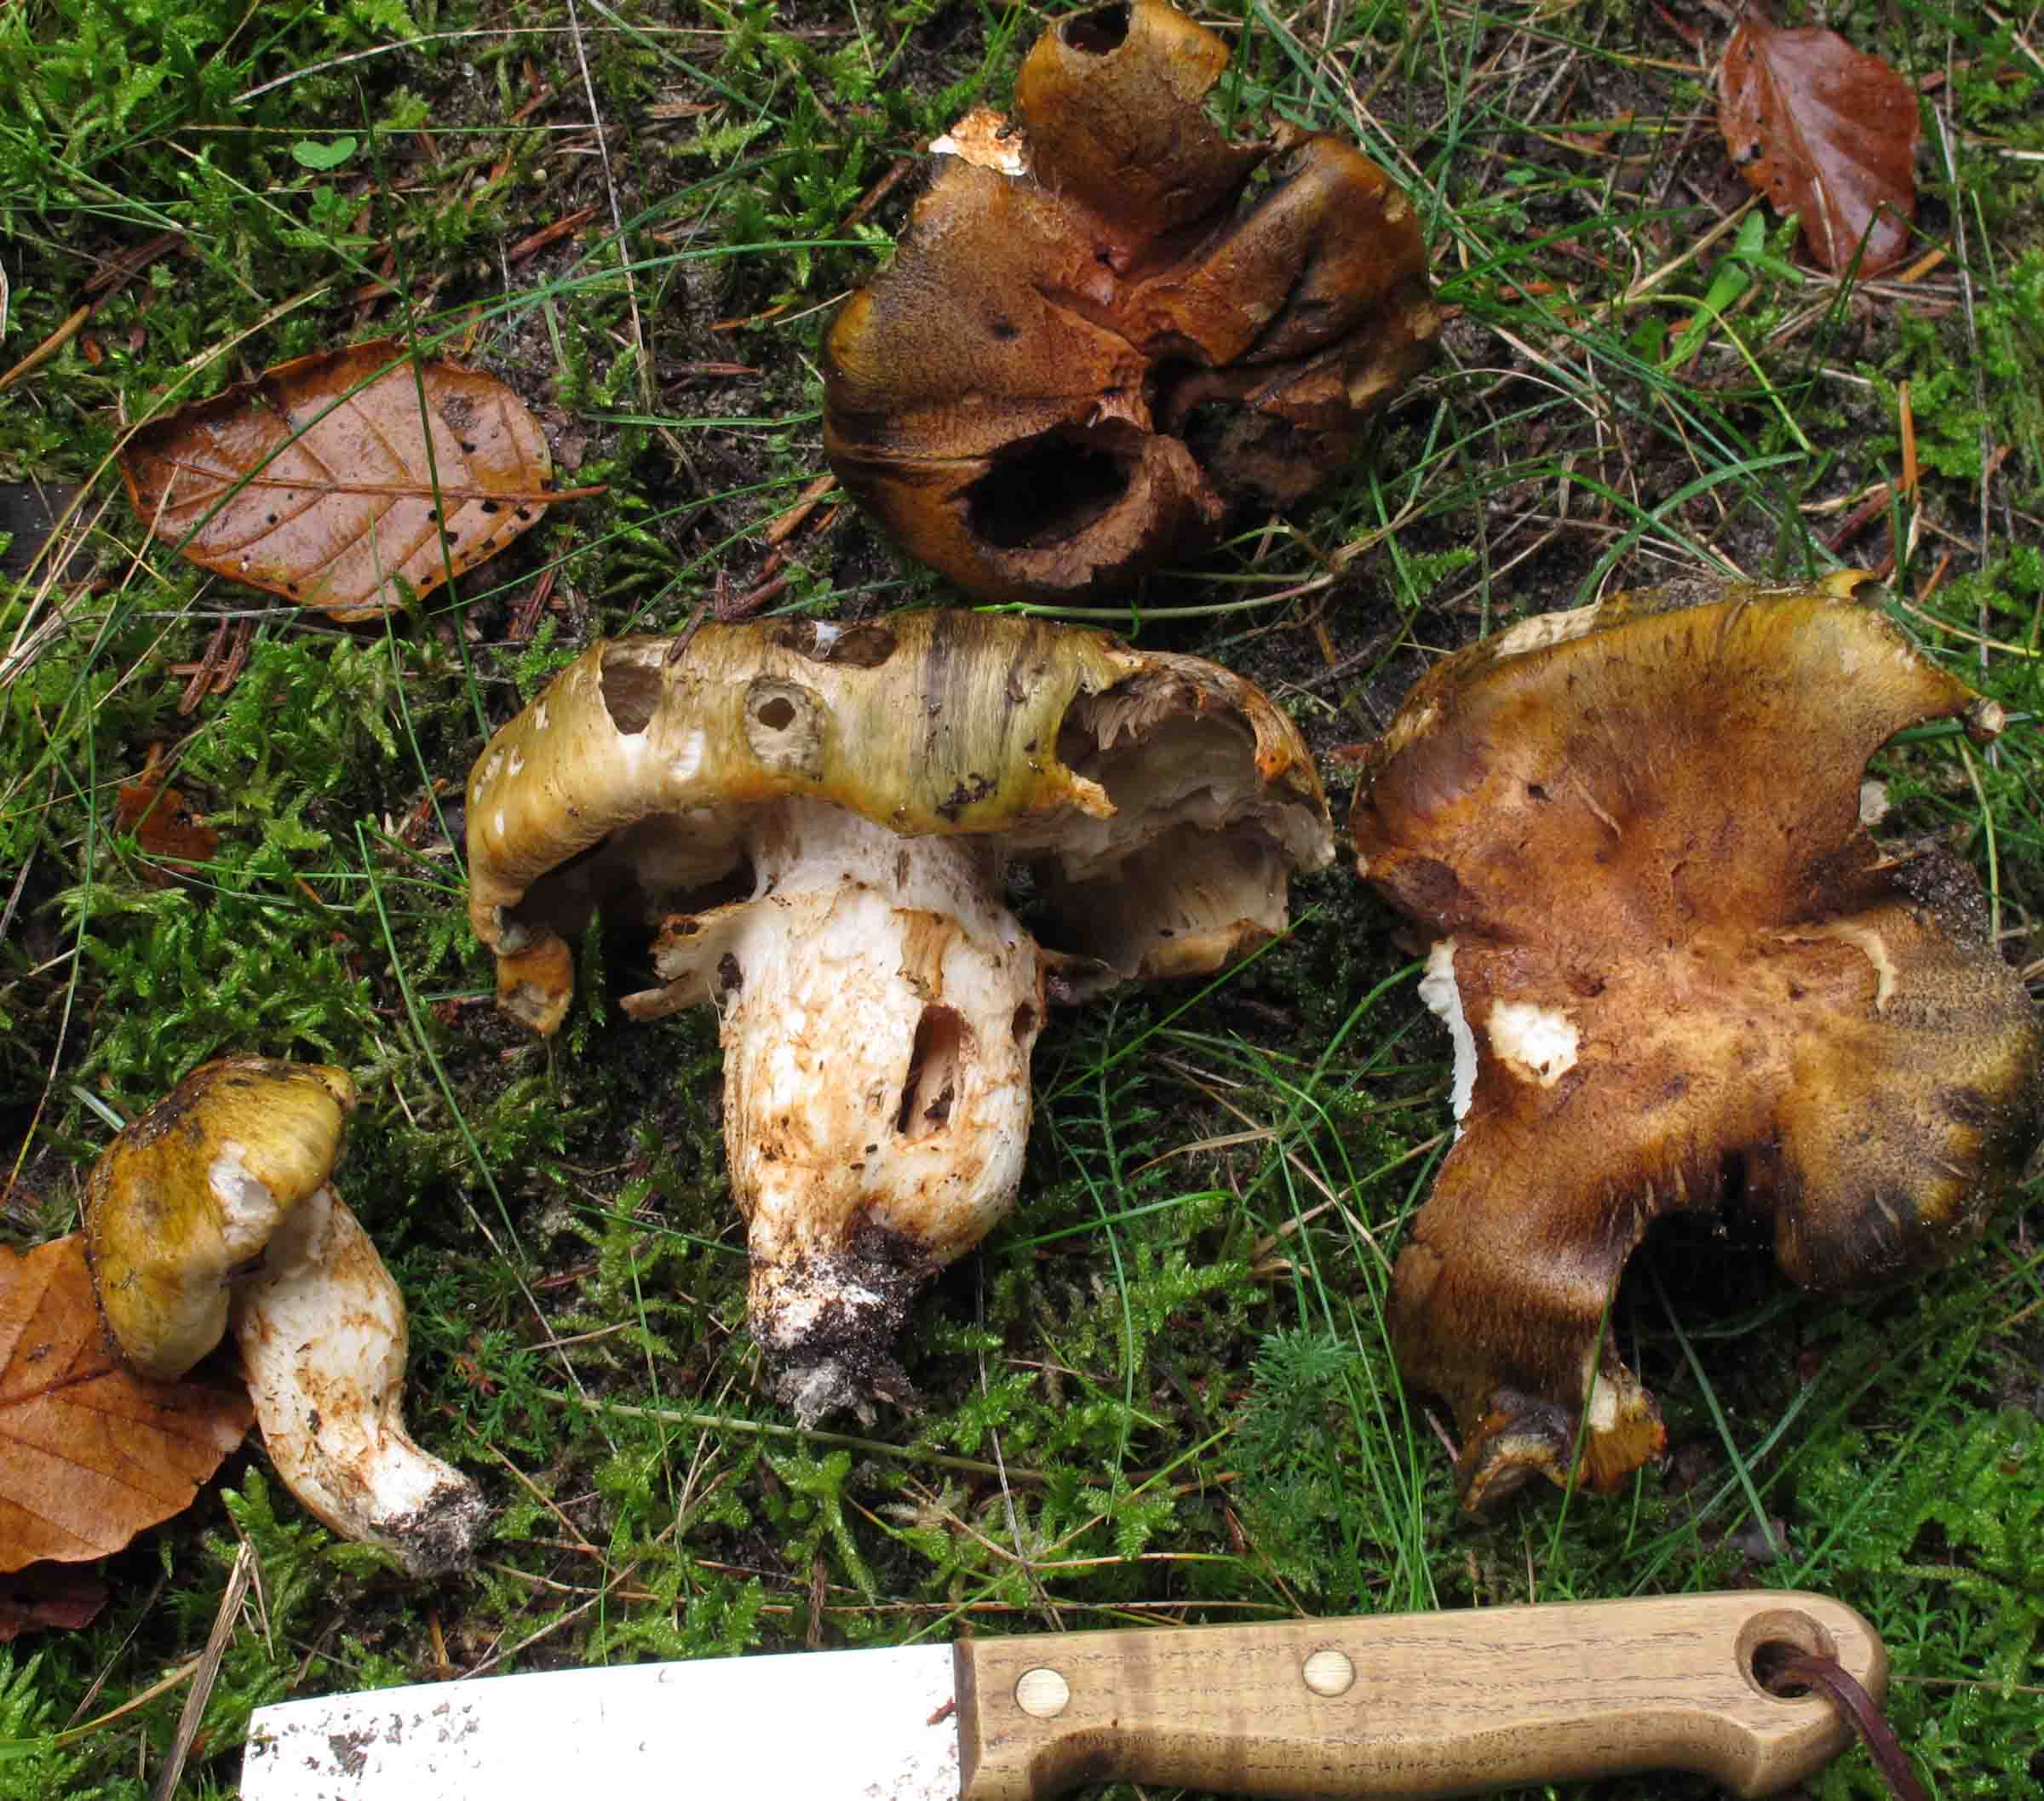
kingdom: Fungi
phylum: Basidiomycota
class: Agaricomycetes
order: Agaricales
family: Tricholomataceae
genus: Tricholoma
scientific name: Tricholoma focale
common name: halsbånd-ridderhat
